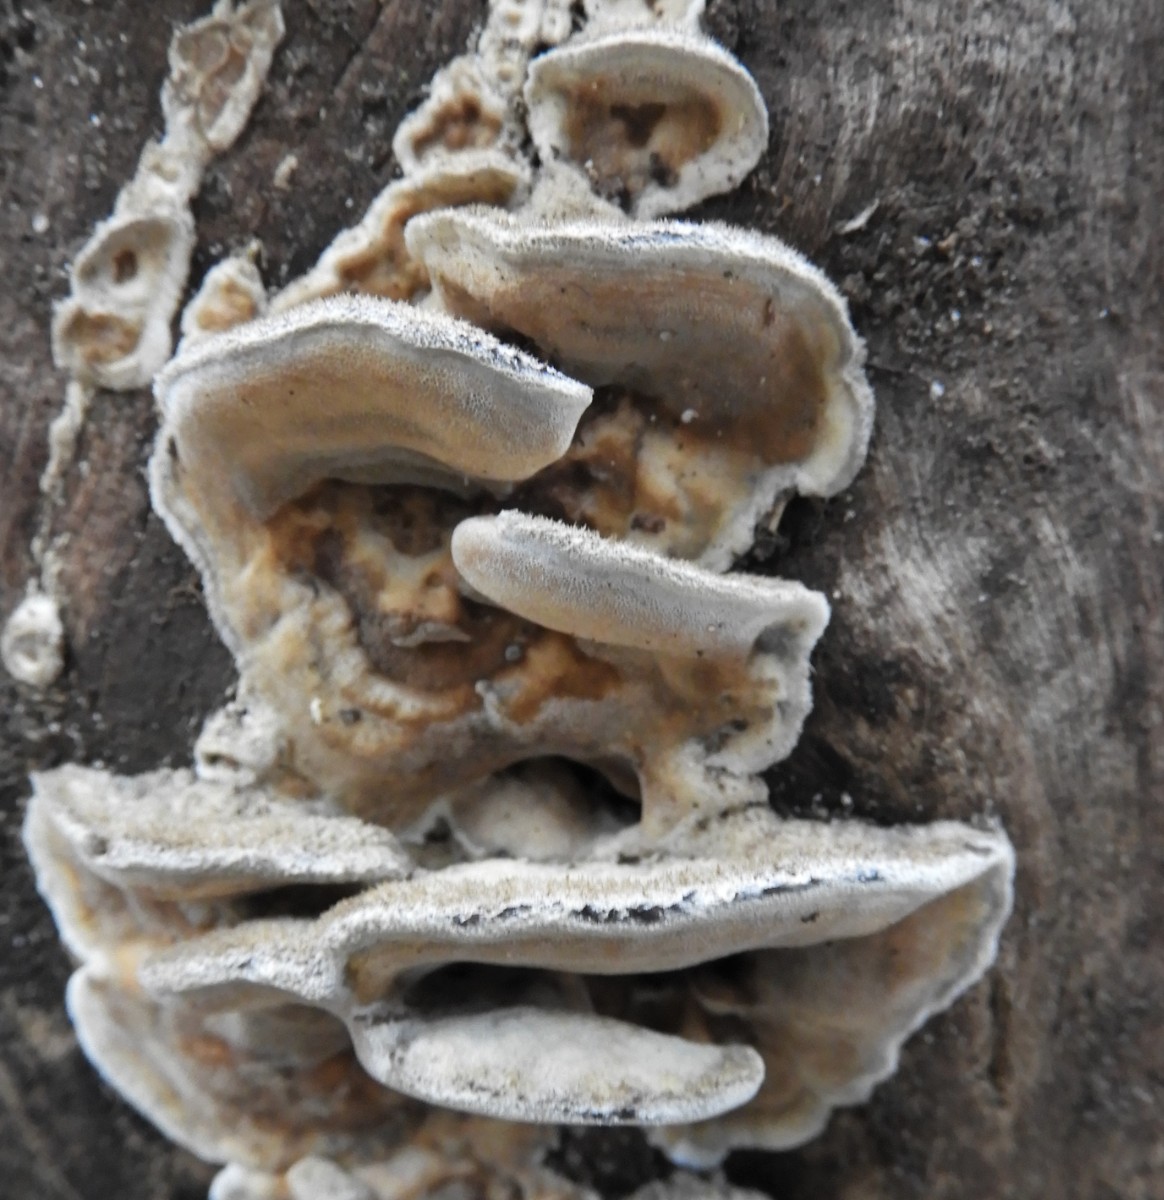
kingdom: Fungi
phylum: Basidiomycota
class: Agaricomycetes
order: Polyporales
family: Phanerochaetaceae
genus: Bjerkandera
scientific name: Bjerkandera fumosa
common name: grågul sodporesvamp
